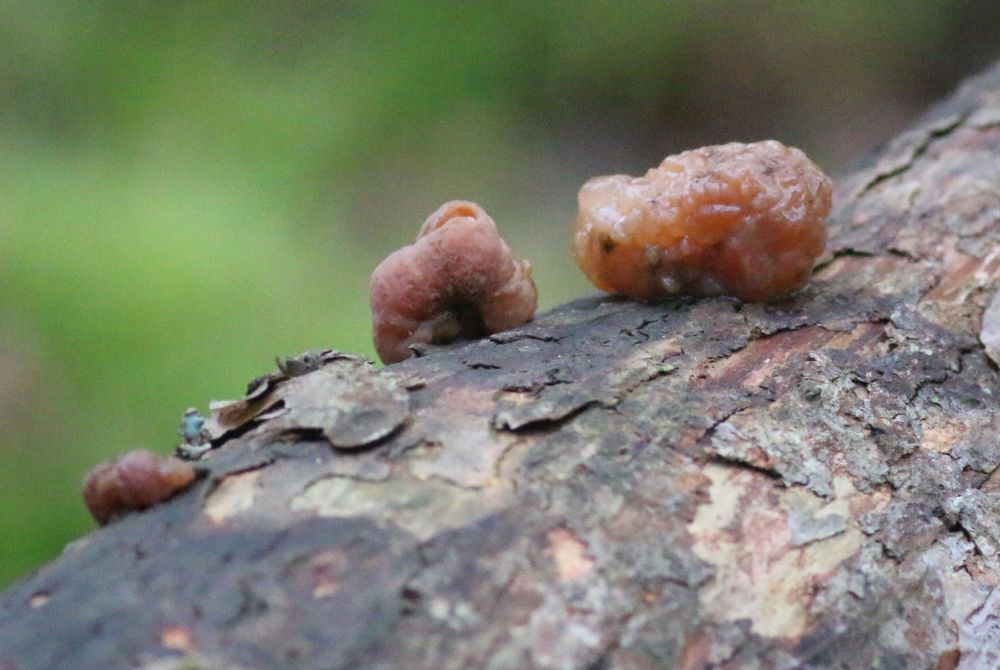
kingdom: Fungi
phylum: Basidiomycota
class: Tremellomycetes
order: Tremellales
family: Naemateliaceae
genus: Naematelia
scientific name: Naematelia encephala
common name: fyrre-bævresvamp
